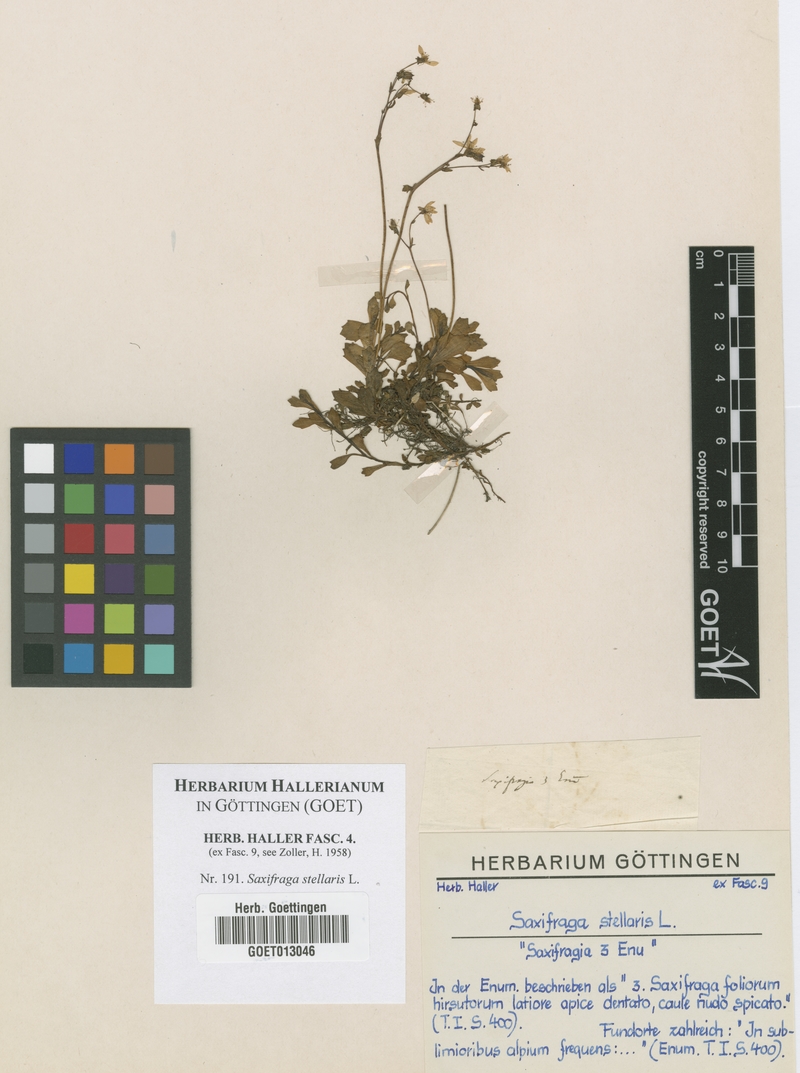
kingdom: Plantae
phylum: Tracheophyta
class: Magnoliopsida
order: Saxifragales
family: Saxifragaceae
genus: Micranthes
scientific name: Micranthes stellaris
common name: Starry saxifrage
